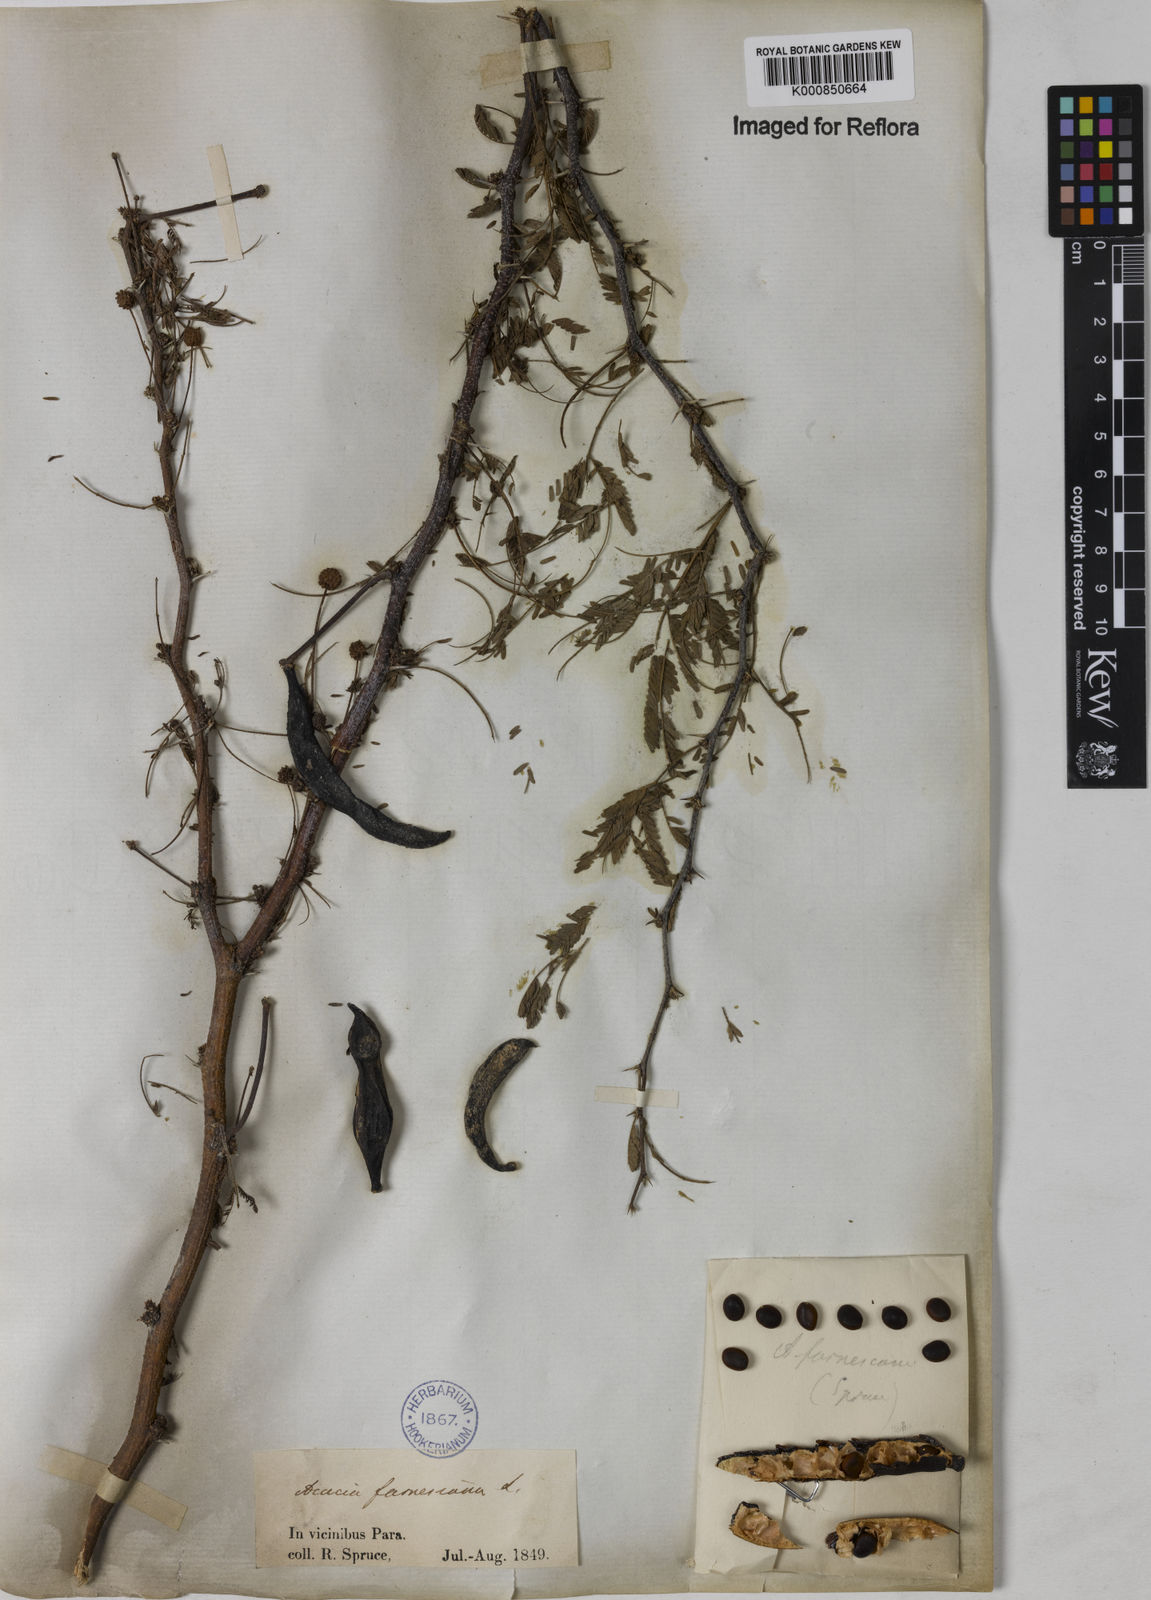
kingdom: Plantae
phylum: Tracheophyta
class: Magnoliopsida
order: Fabales
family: Fabaceae
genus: Vachellia
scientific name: Vachellia farnesiana
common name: Sweet acacia
